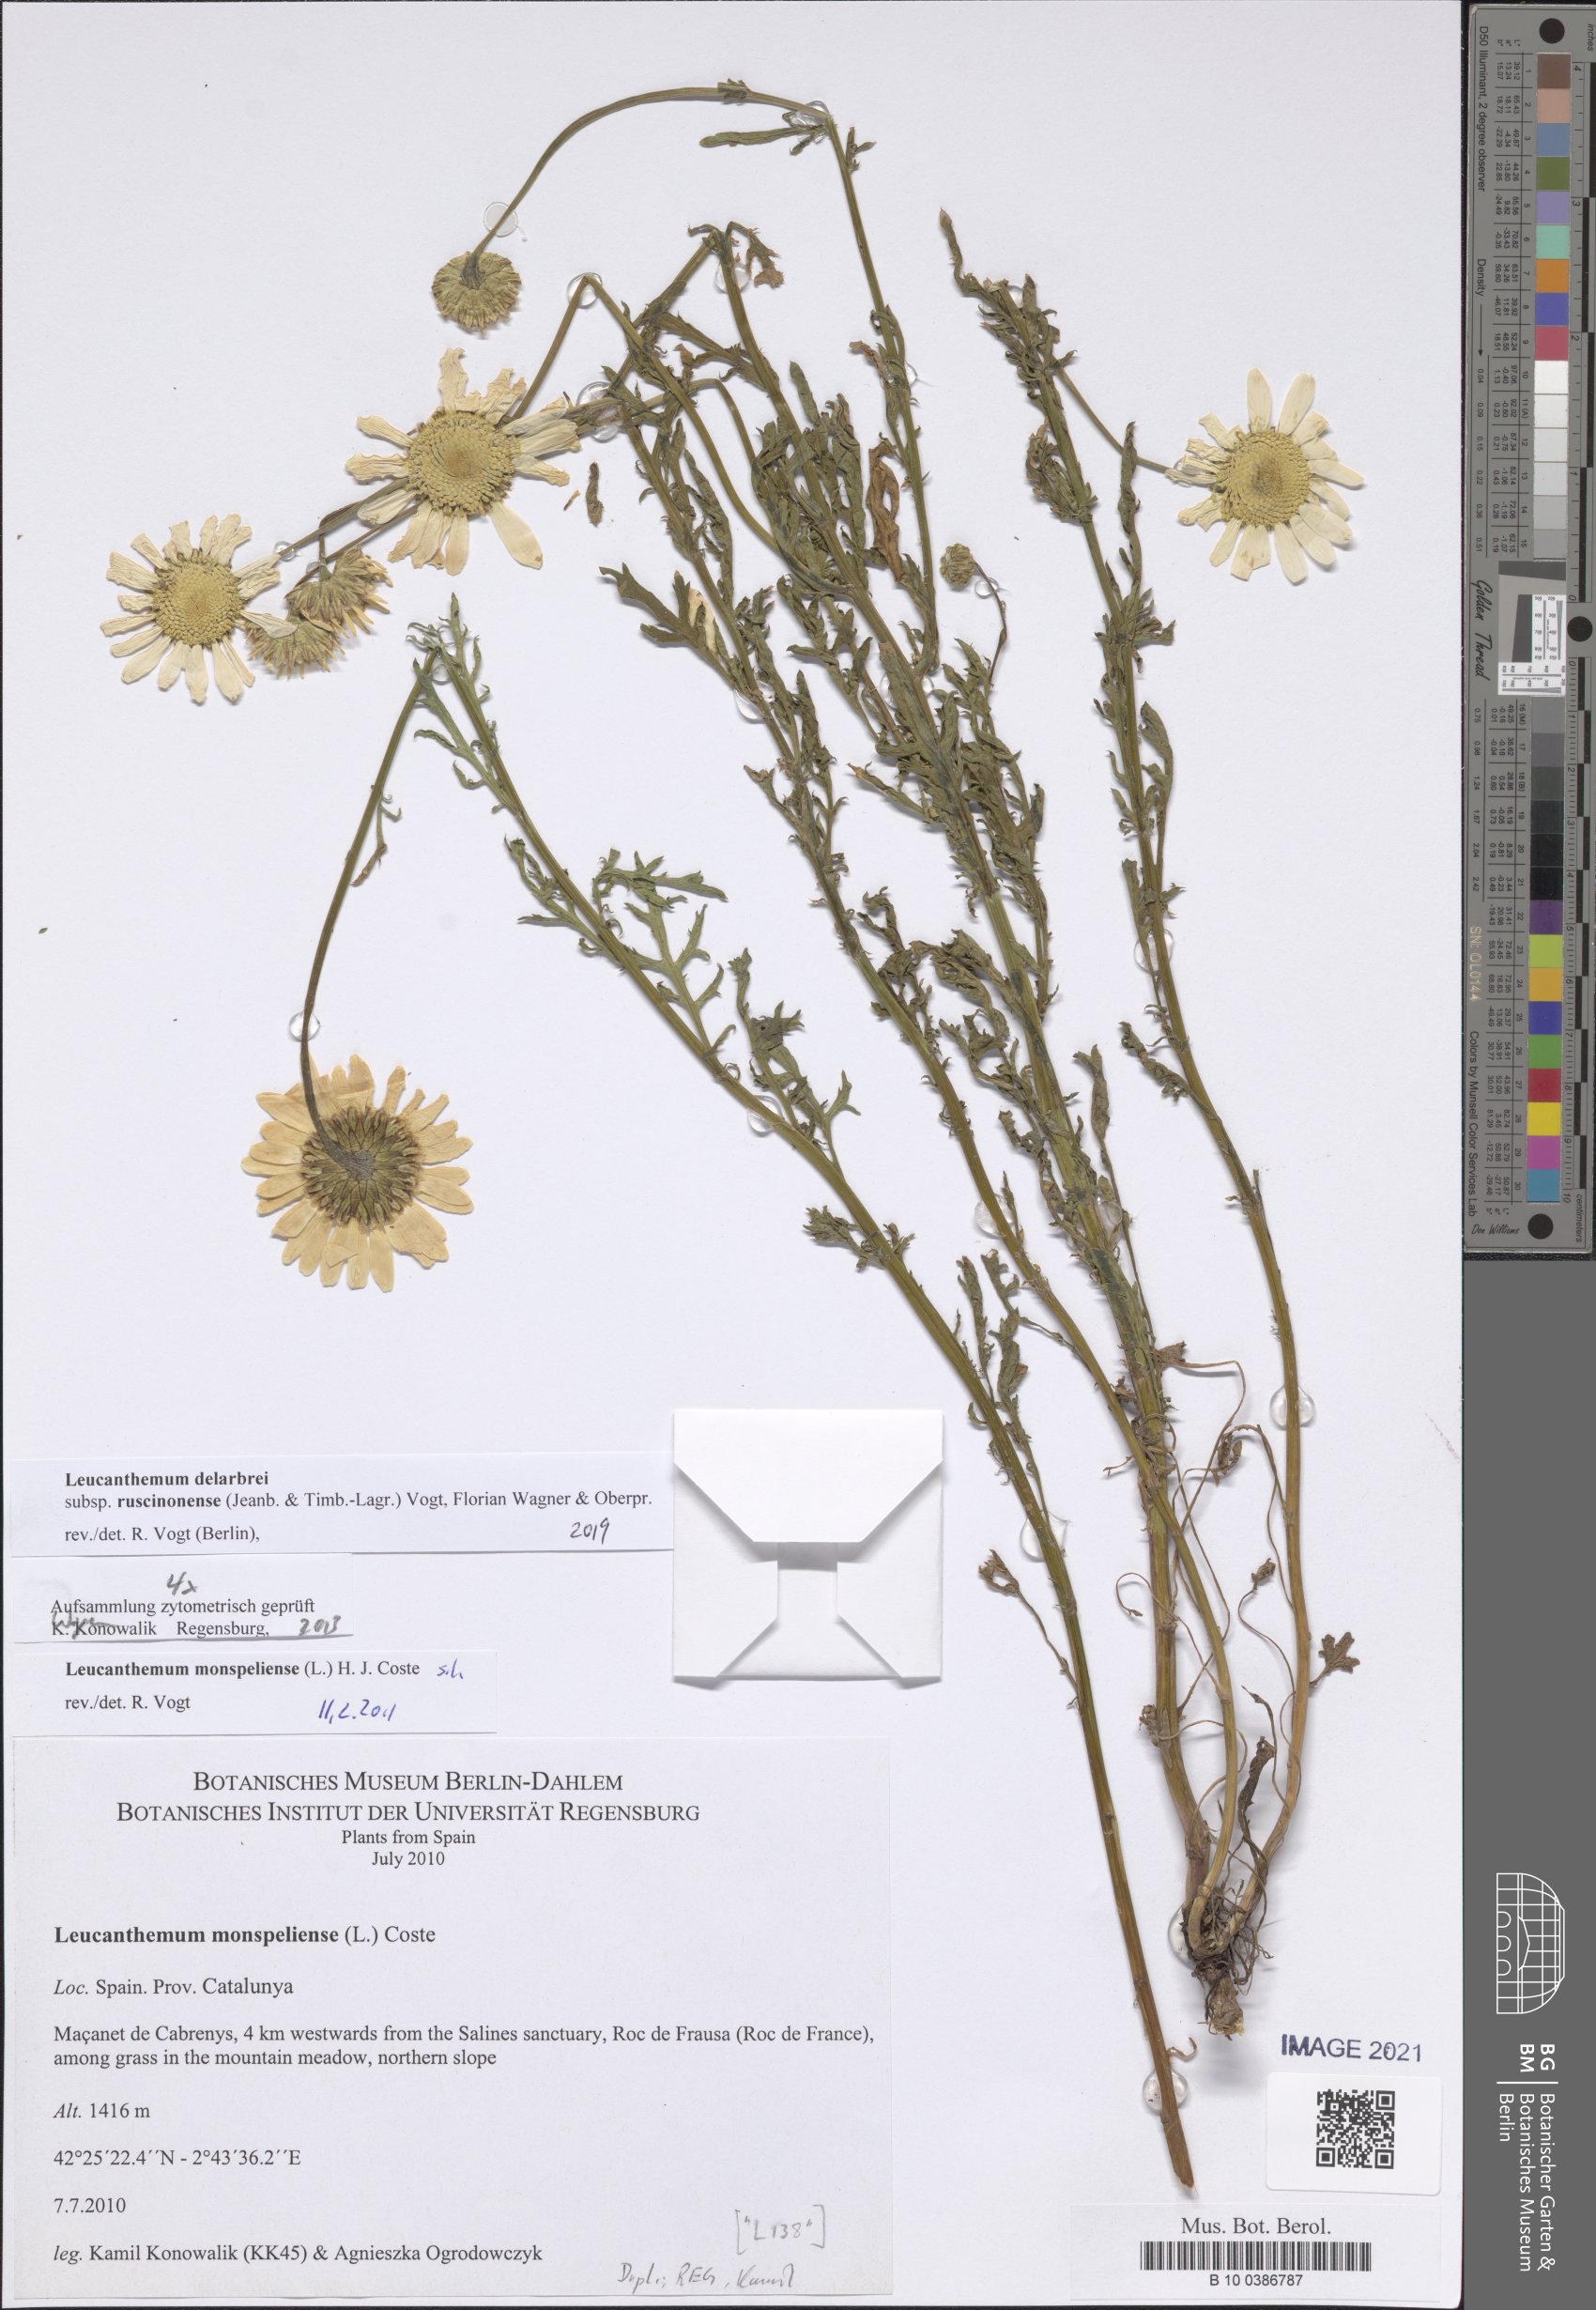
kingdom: Plantae
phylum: Tracheophyta
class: Magnoliopsida
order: Asterales
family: Asteraceae
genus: Leucanthemum
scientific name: Leucanthemum delarbrei
